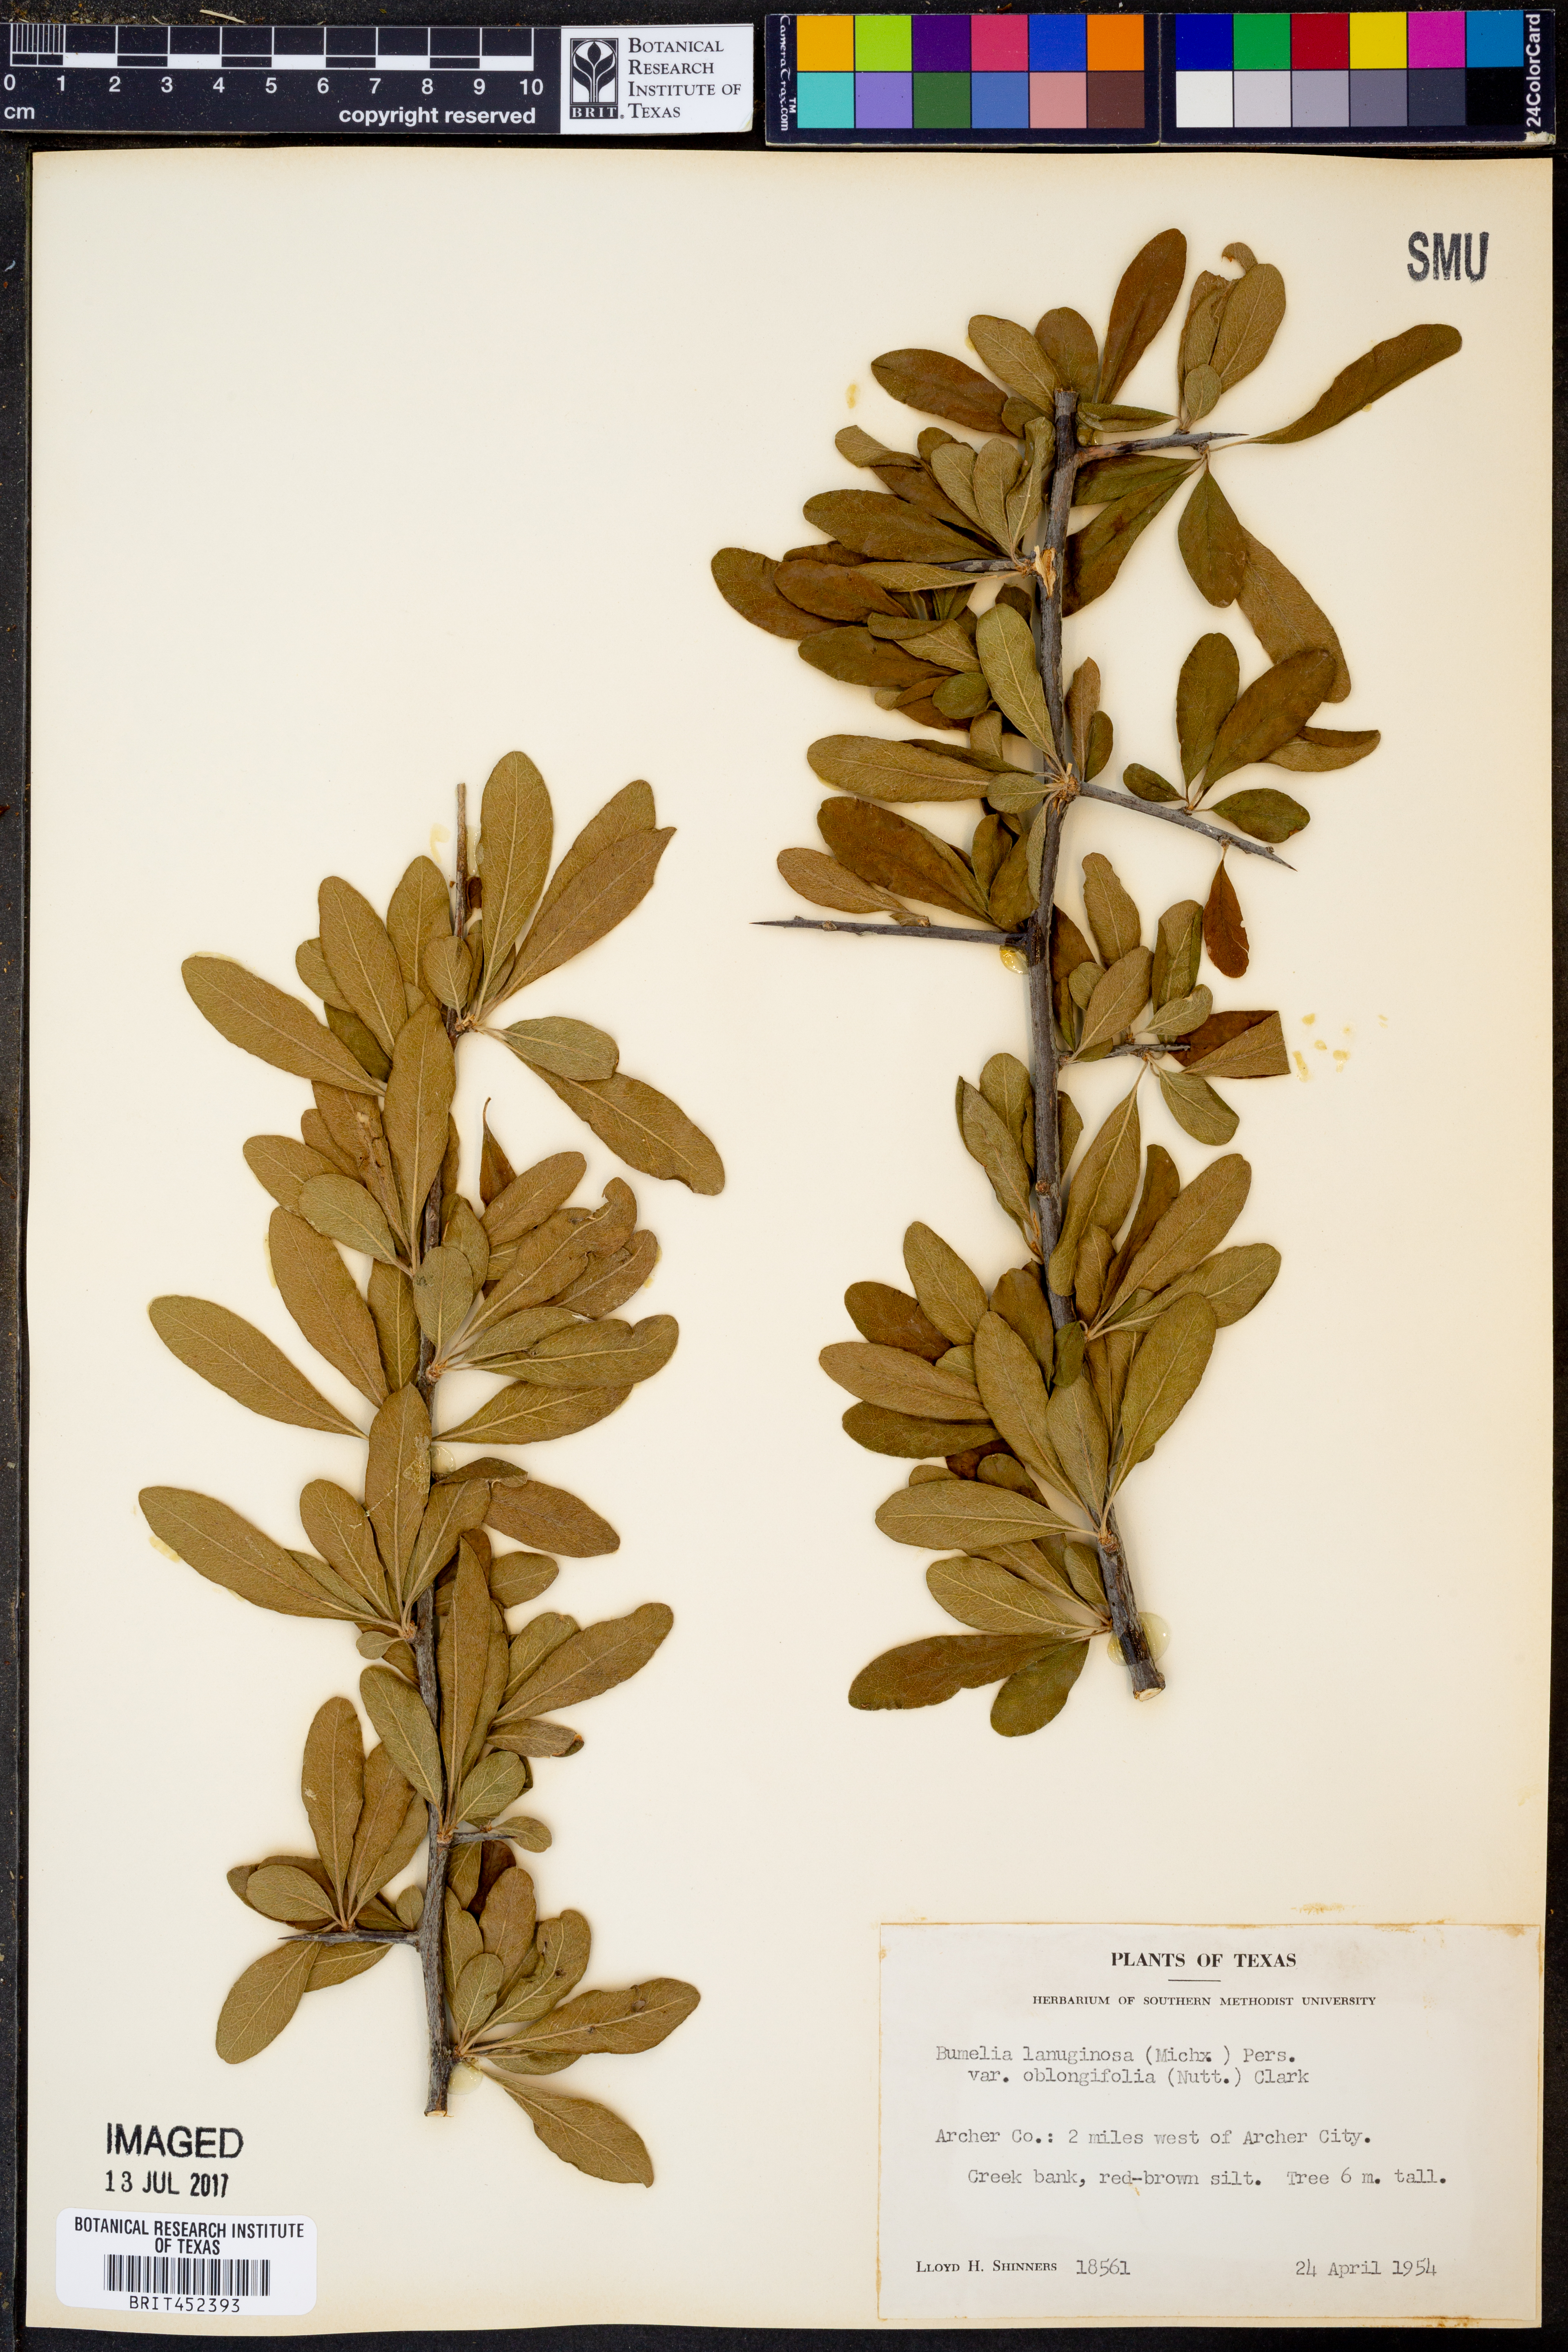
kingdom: Plantae
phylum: Tracheophyta
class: Magnoliopsida
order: Ericales
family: Sapotaceae
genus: Sideroxylon
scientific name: Sideroxylon lanuginosum
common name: Chittamwood
